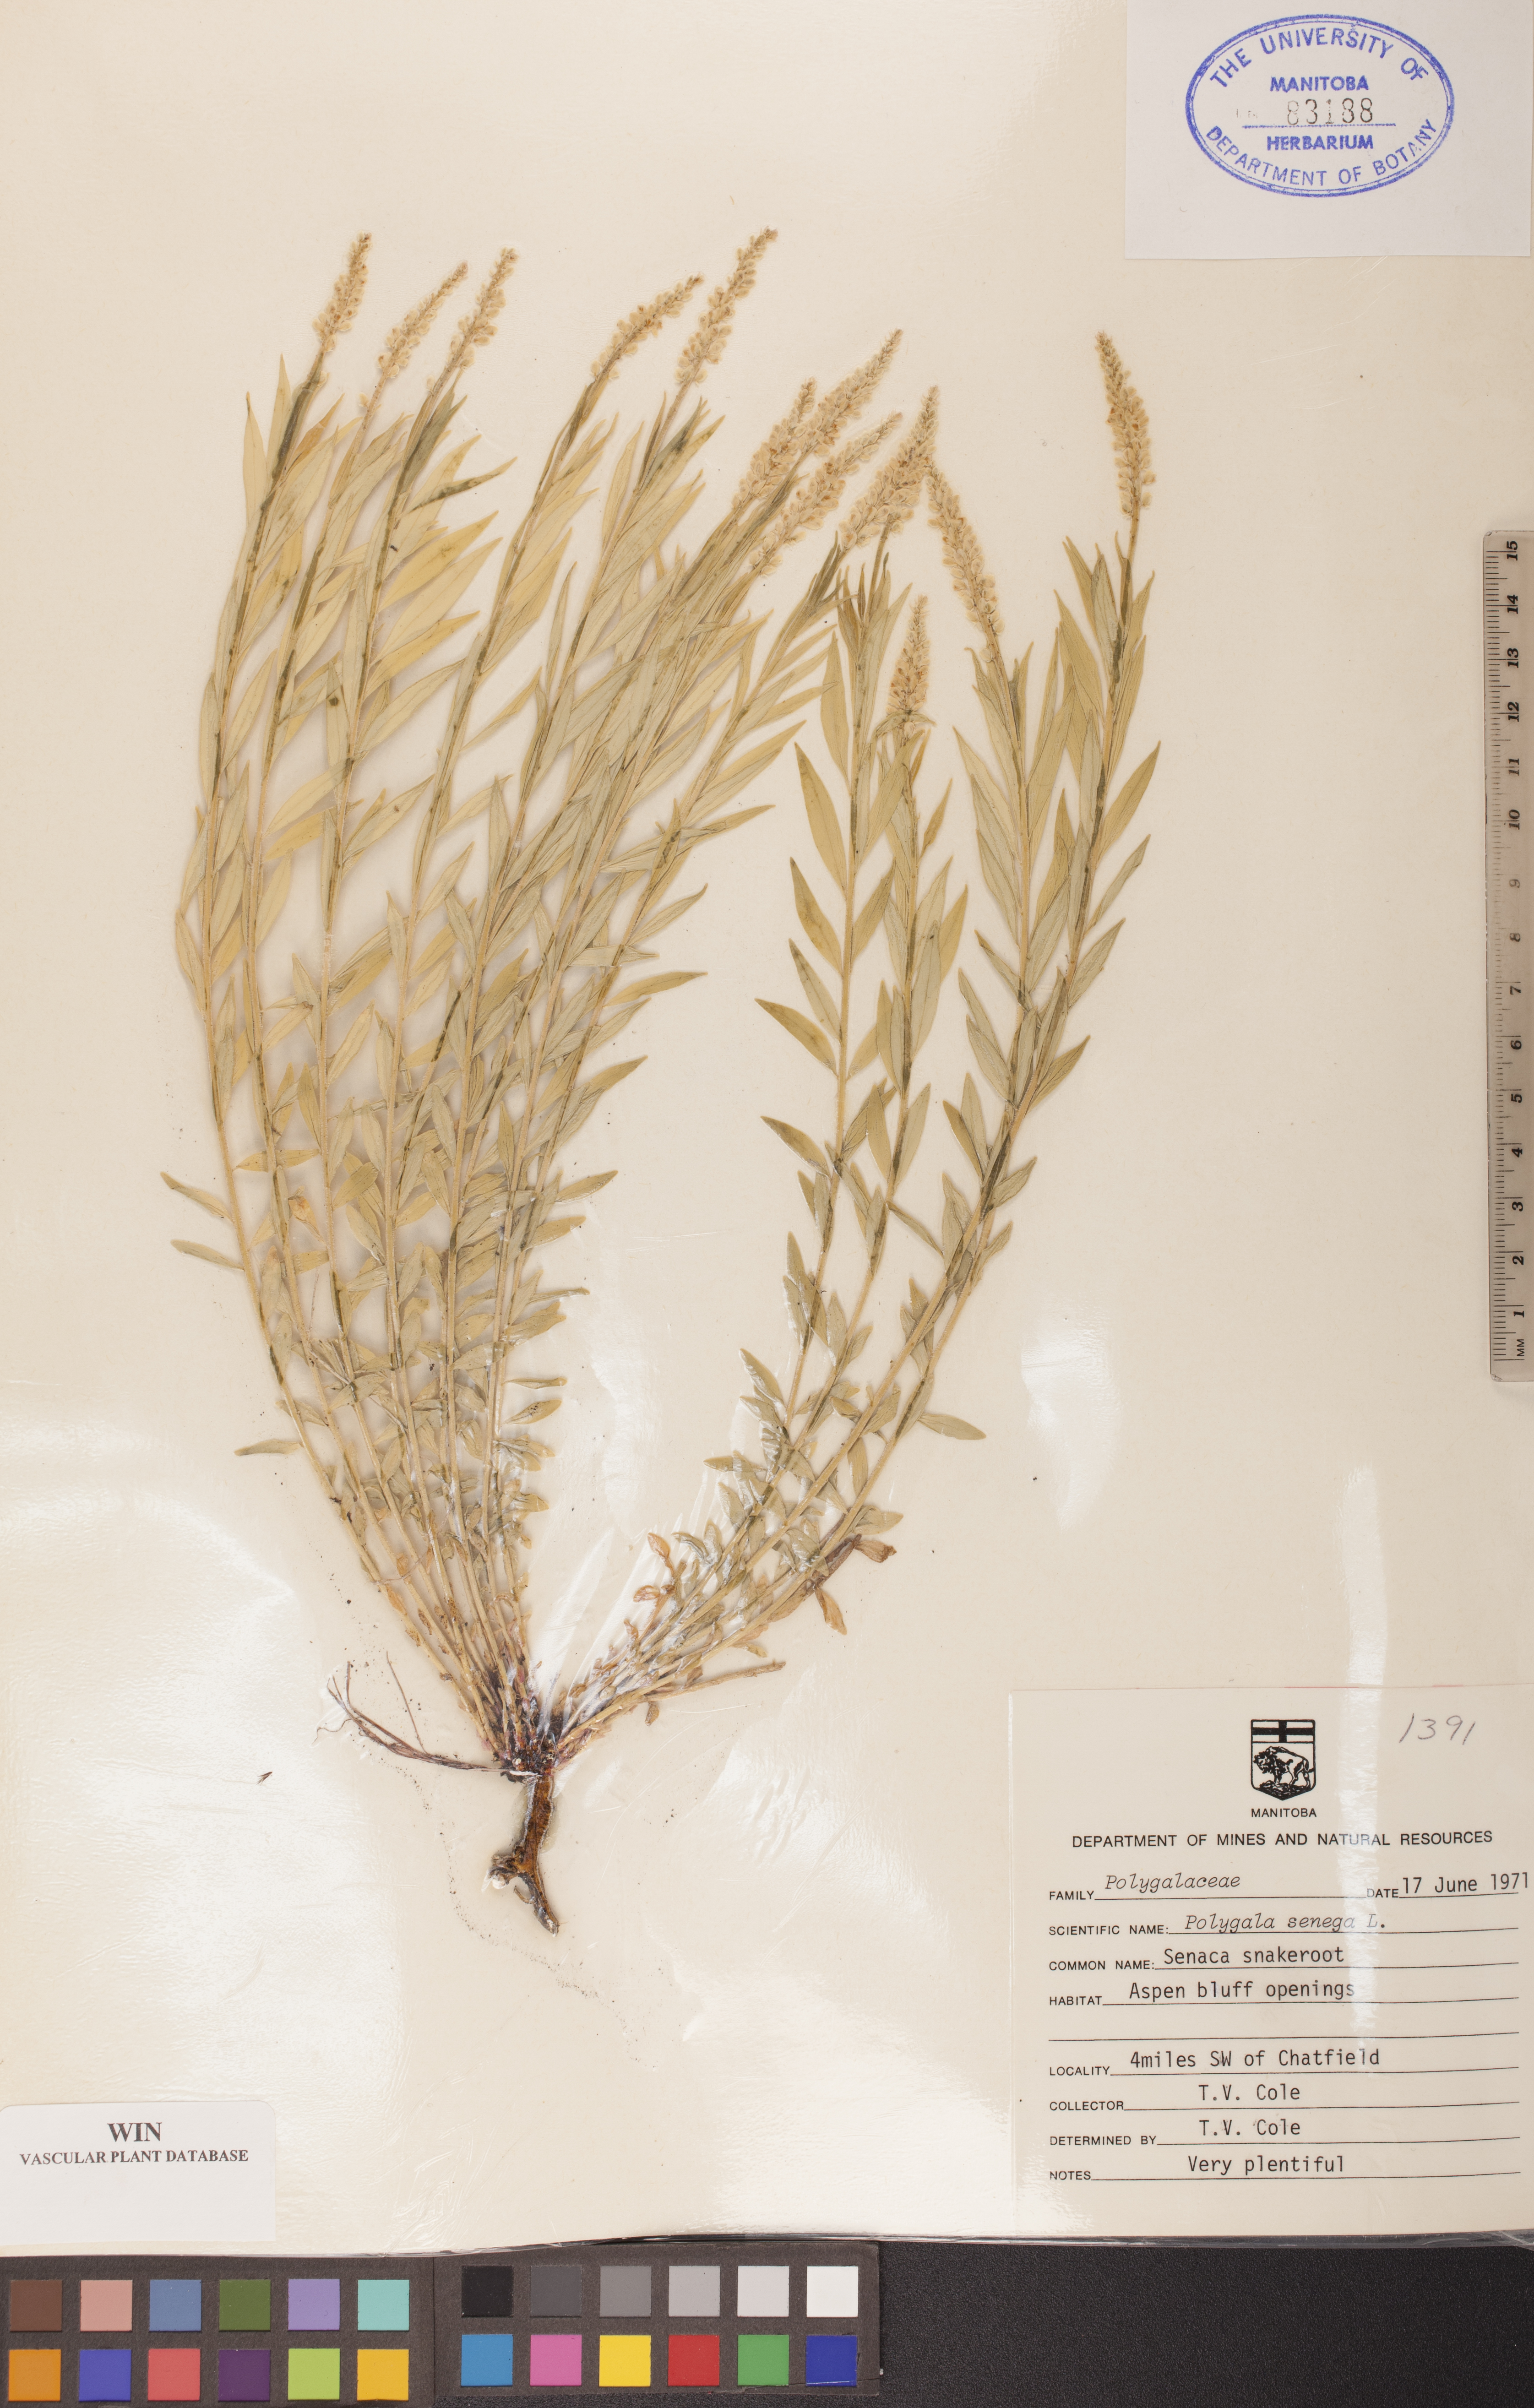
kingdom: Plantae
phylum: Tracheophyta
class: Magnoliopsida
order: Fabales
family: Polygalaceae
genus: Polygala
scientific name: Polygala senega
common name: Seneca snakeroot
